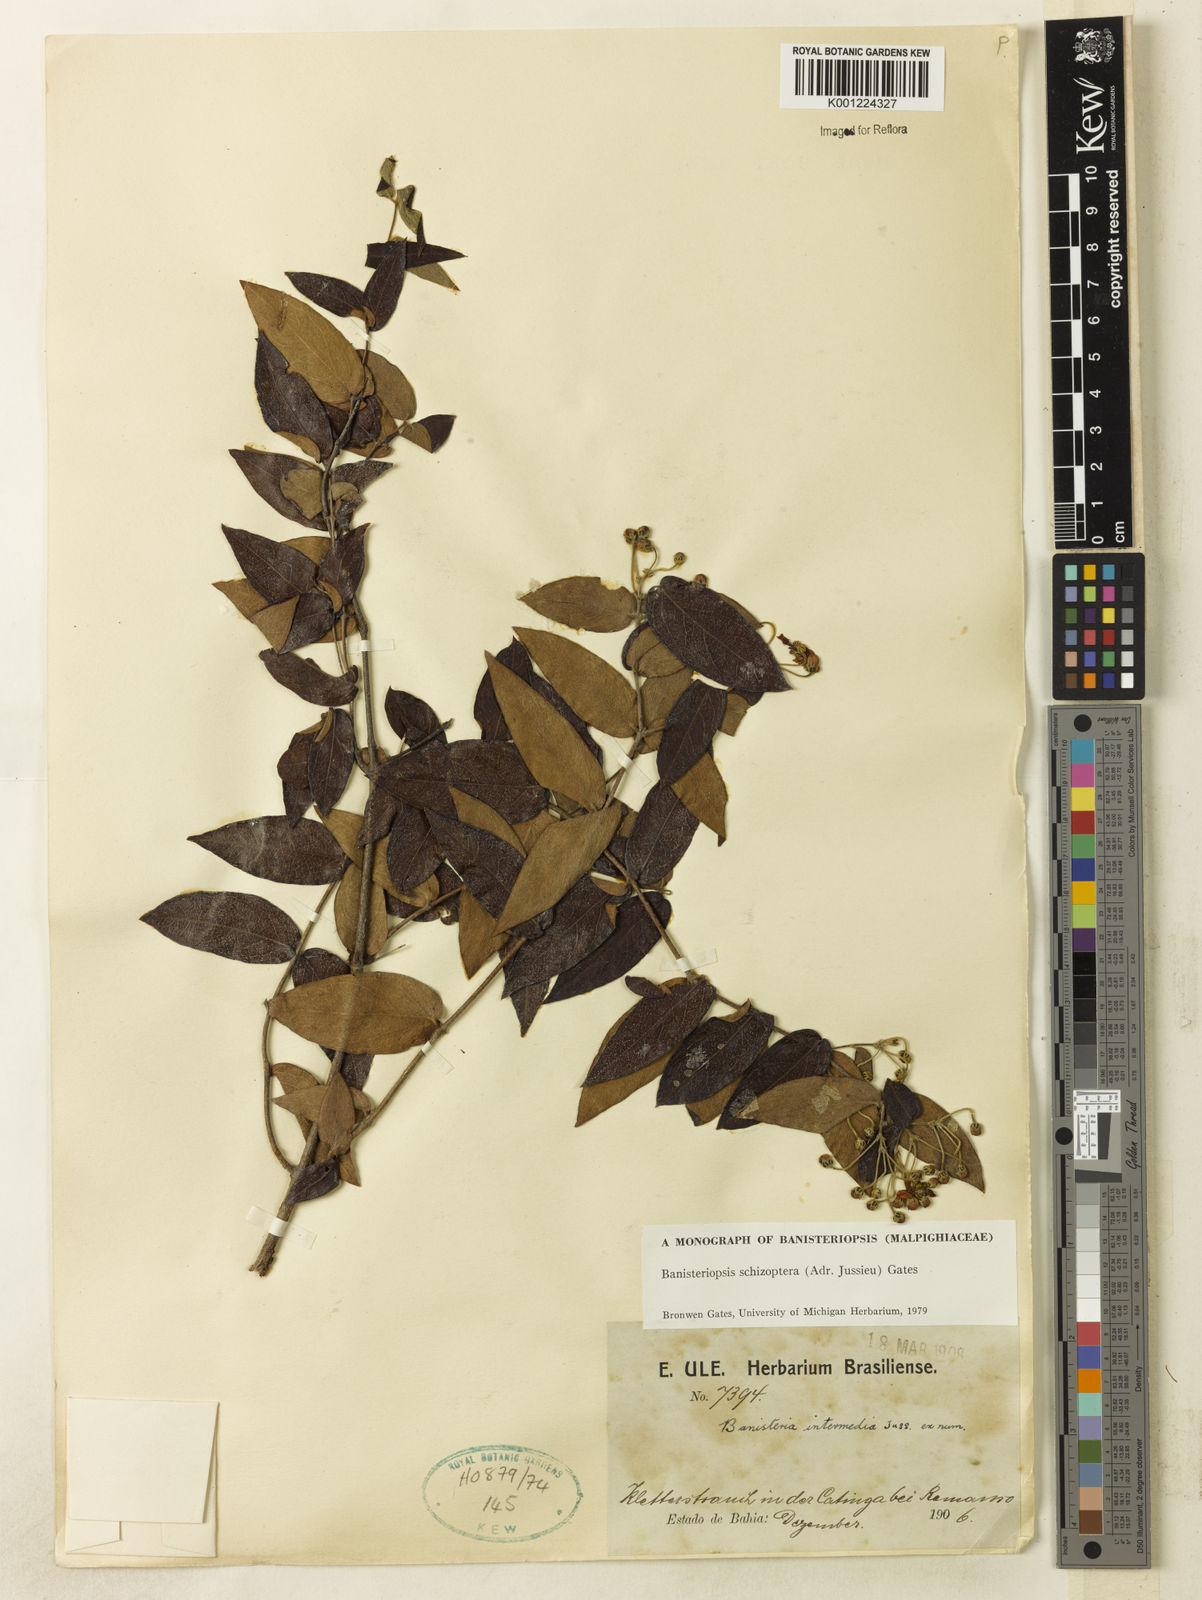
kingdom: Plantae
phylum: Tracheophyta
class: Magnoliopsida
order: Malpighiales
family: Malpighiaceae
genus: Banisteriopsis
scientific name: Banisteriopsis schizoptera
